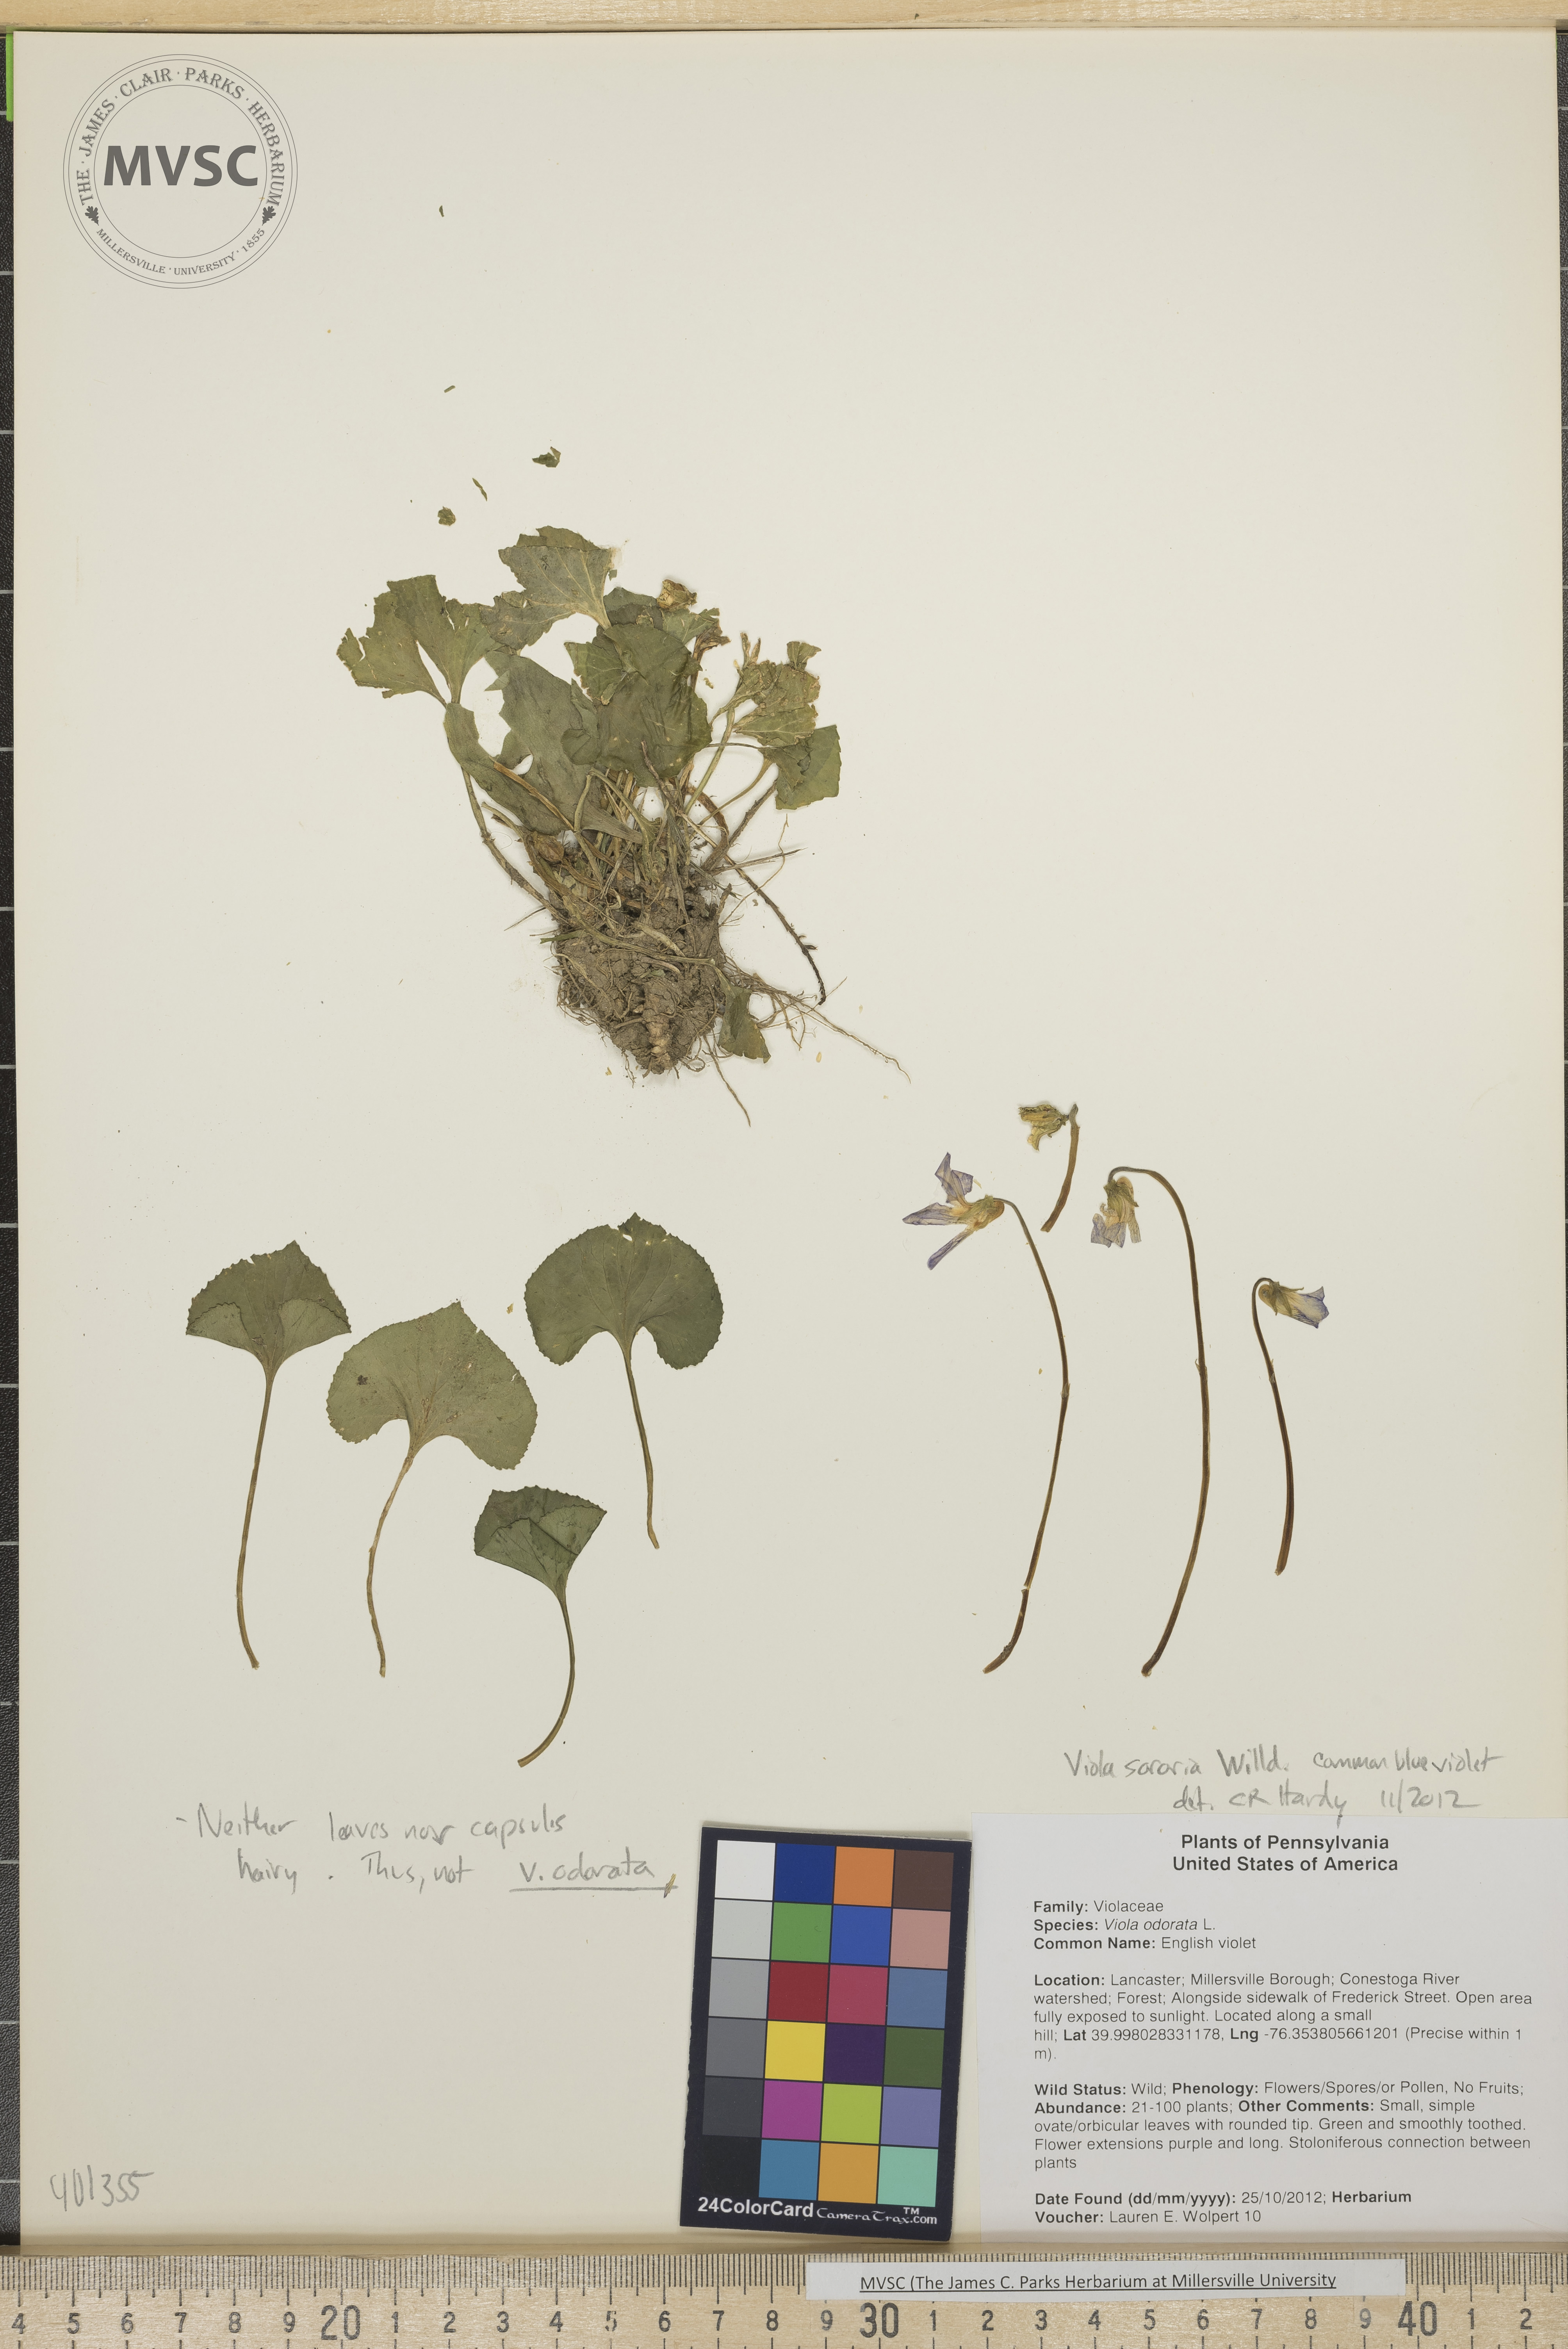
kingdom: Plantae
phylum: Tracheophyta
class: Magnoliopsida
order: Malpighiales
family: Violaceae
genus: Viola
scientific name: Viola sororia
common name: common blue violet
